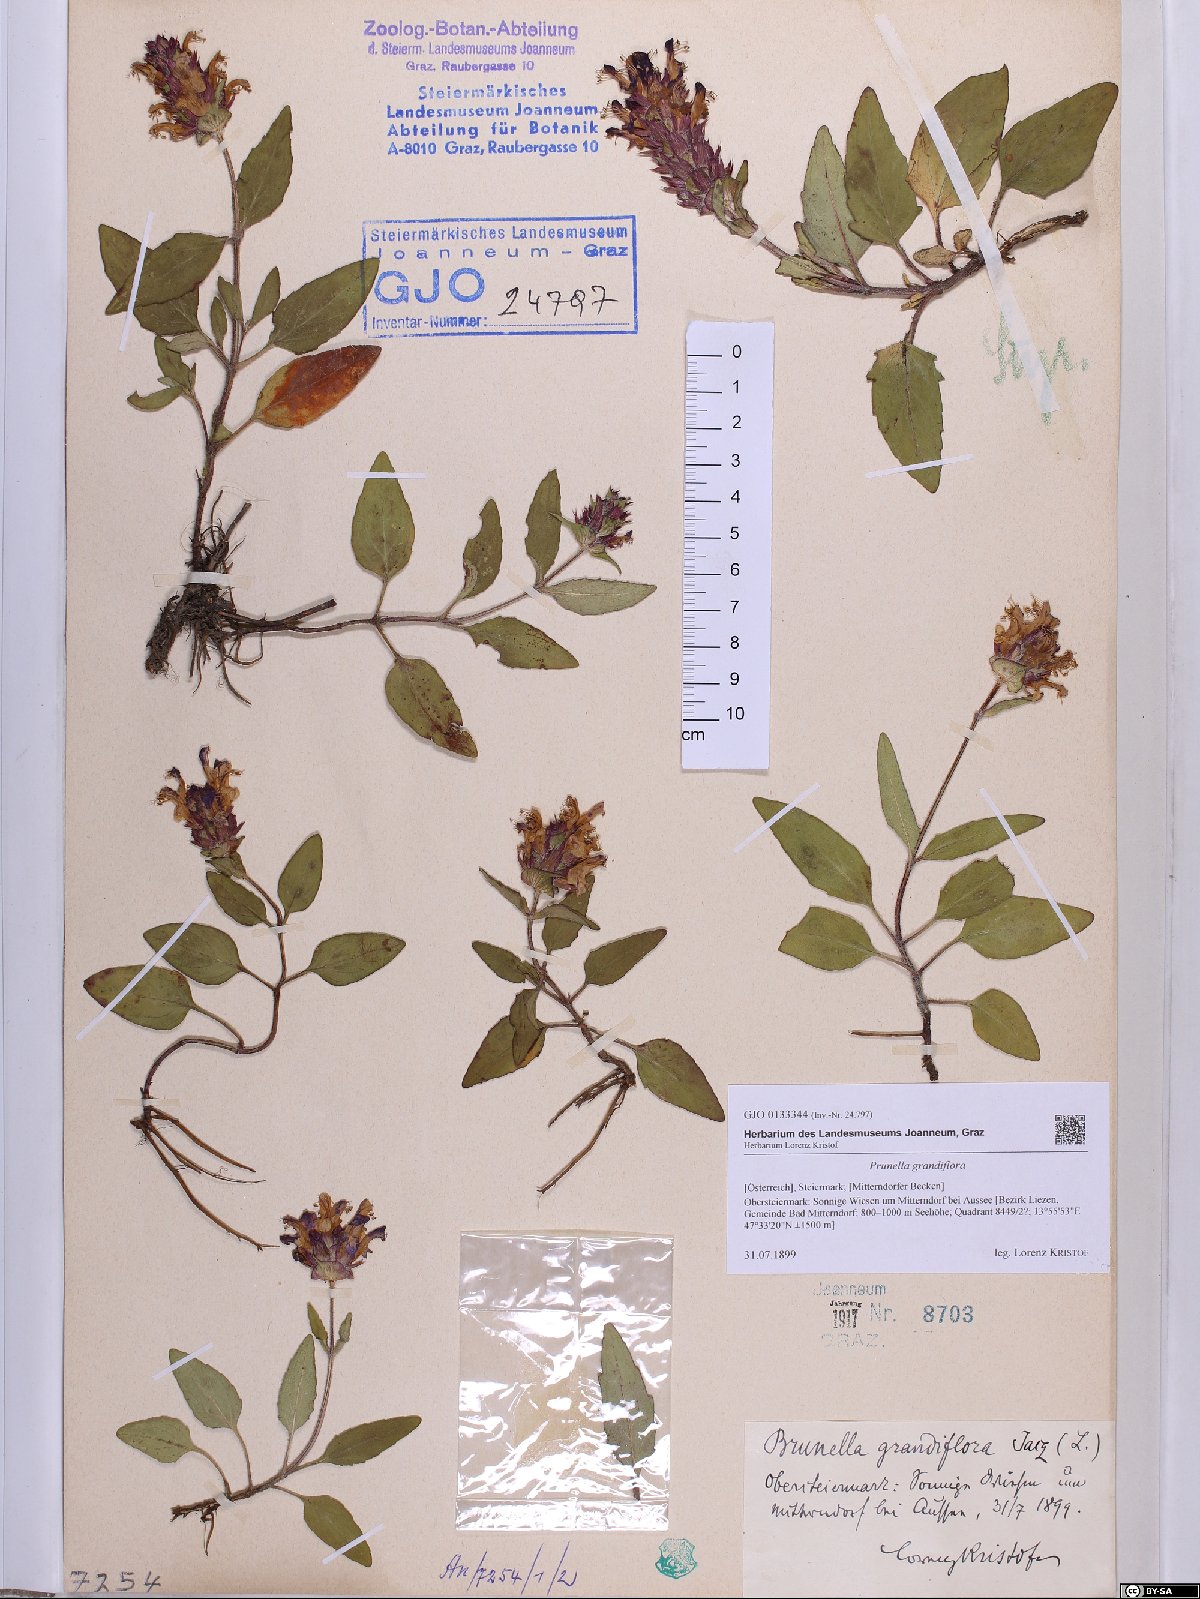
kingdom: Plantae
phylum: Tracheophyta
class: Magnoliopsida
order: Lamiales
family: Lamiaceae
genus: Prunella
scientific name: Prunella grandiflora
